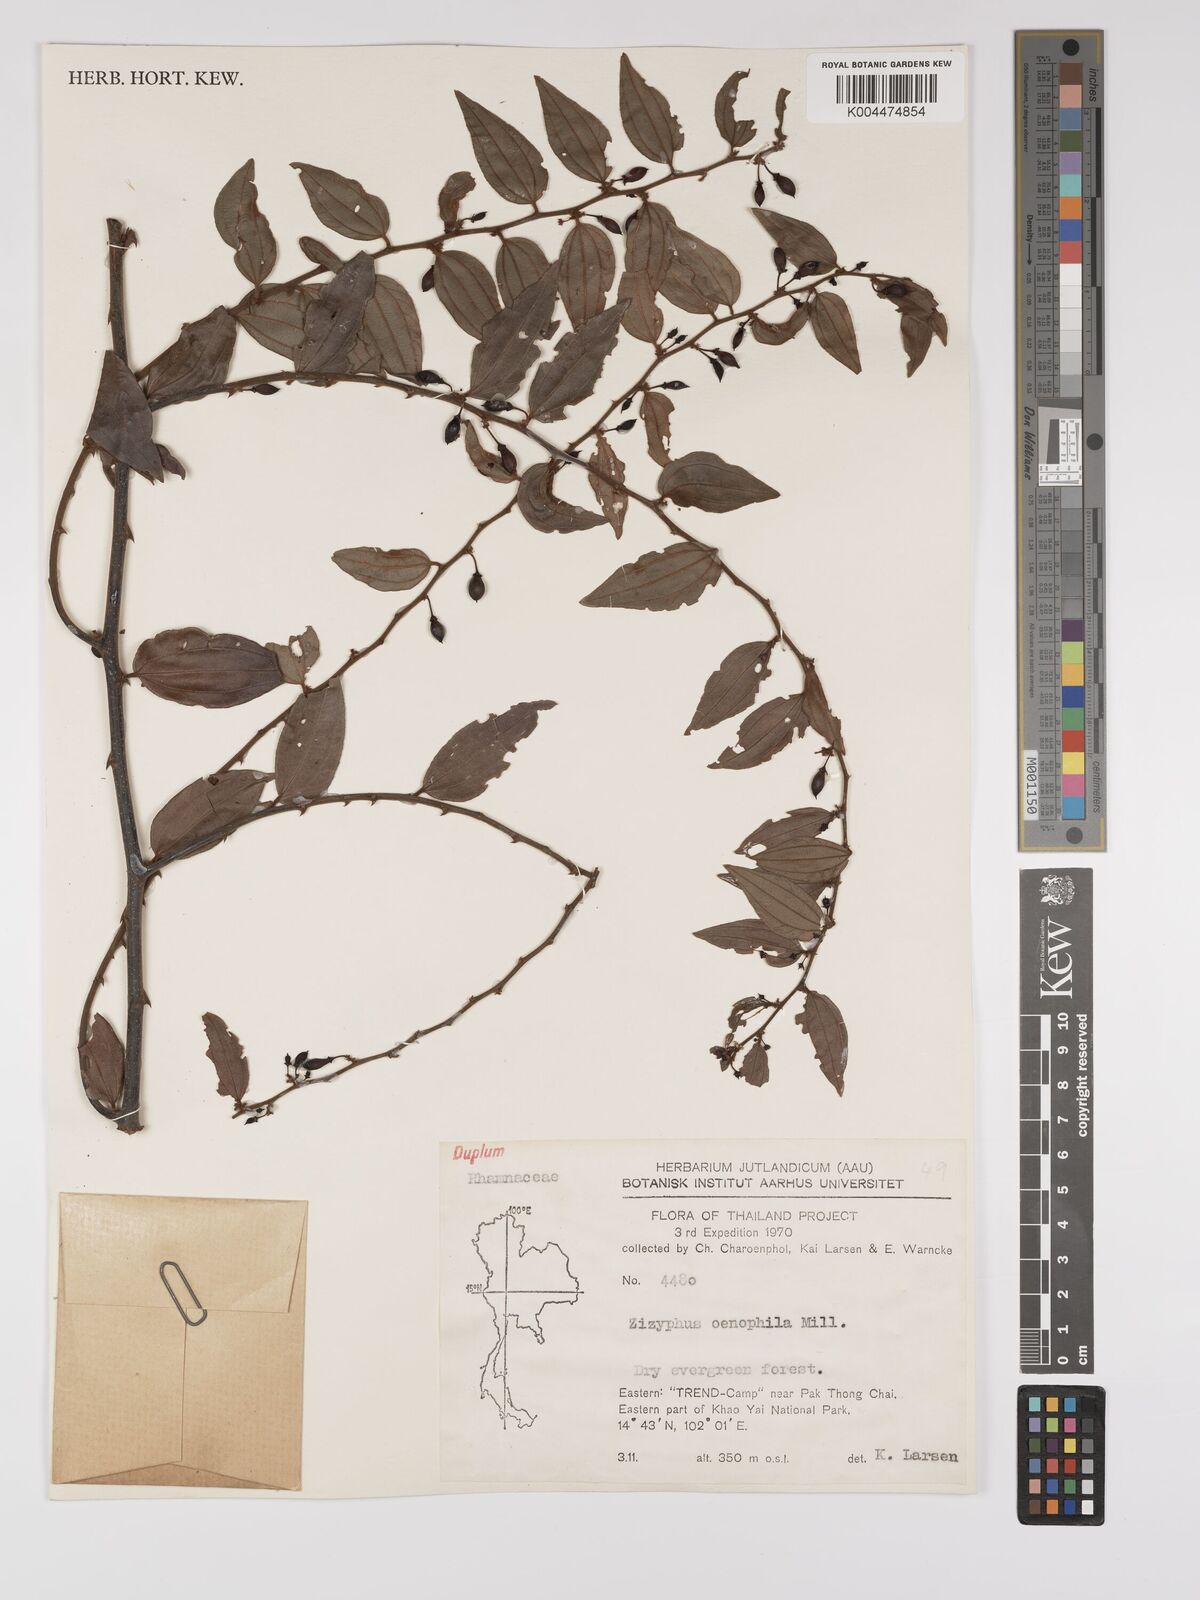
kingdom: Plantae
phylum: Tracheophyta
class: Magnoliopsida
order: Rosales
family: Rhamnaceae
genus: Ziziphus
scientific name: Ziziphus oenopolia
